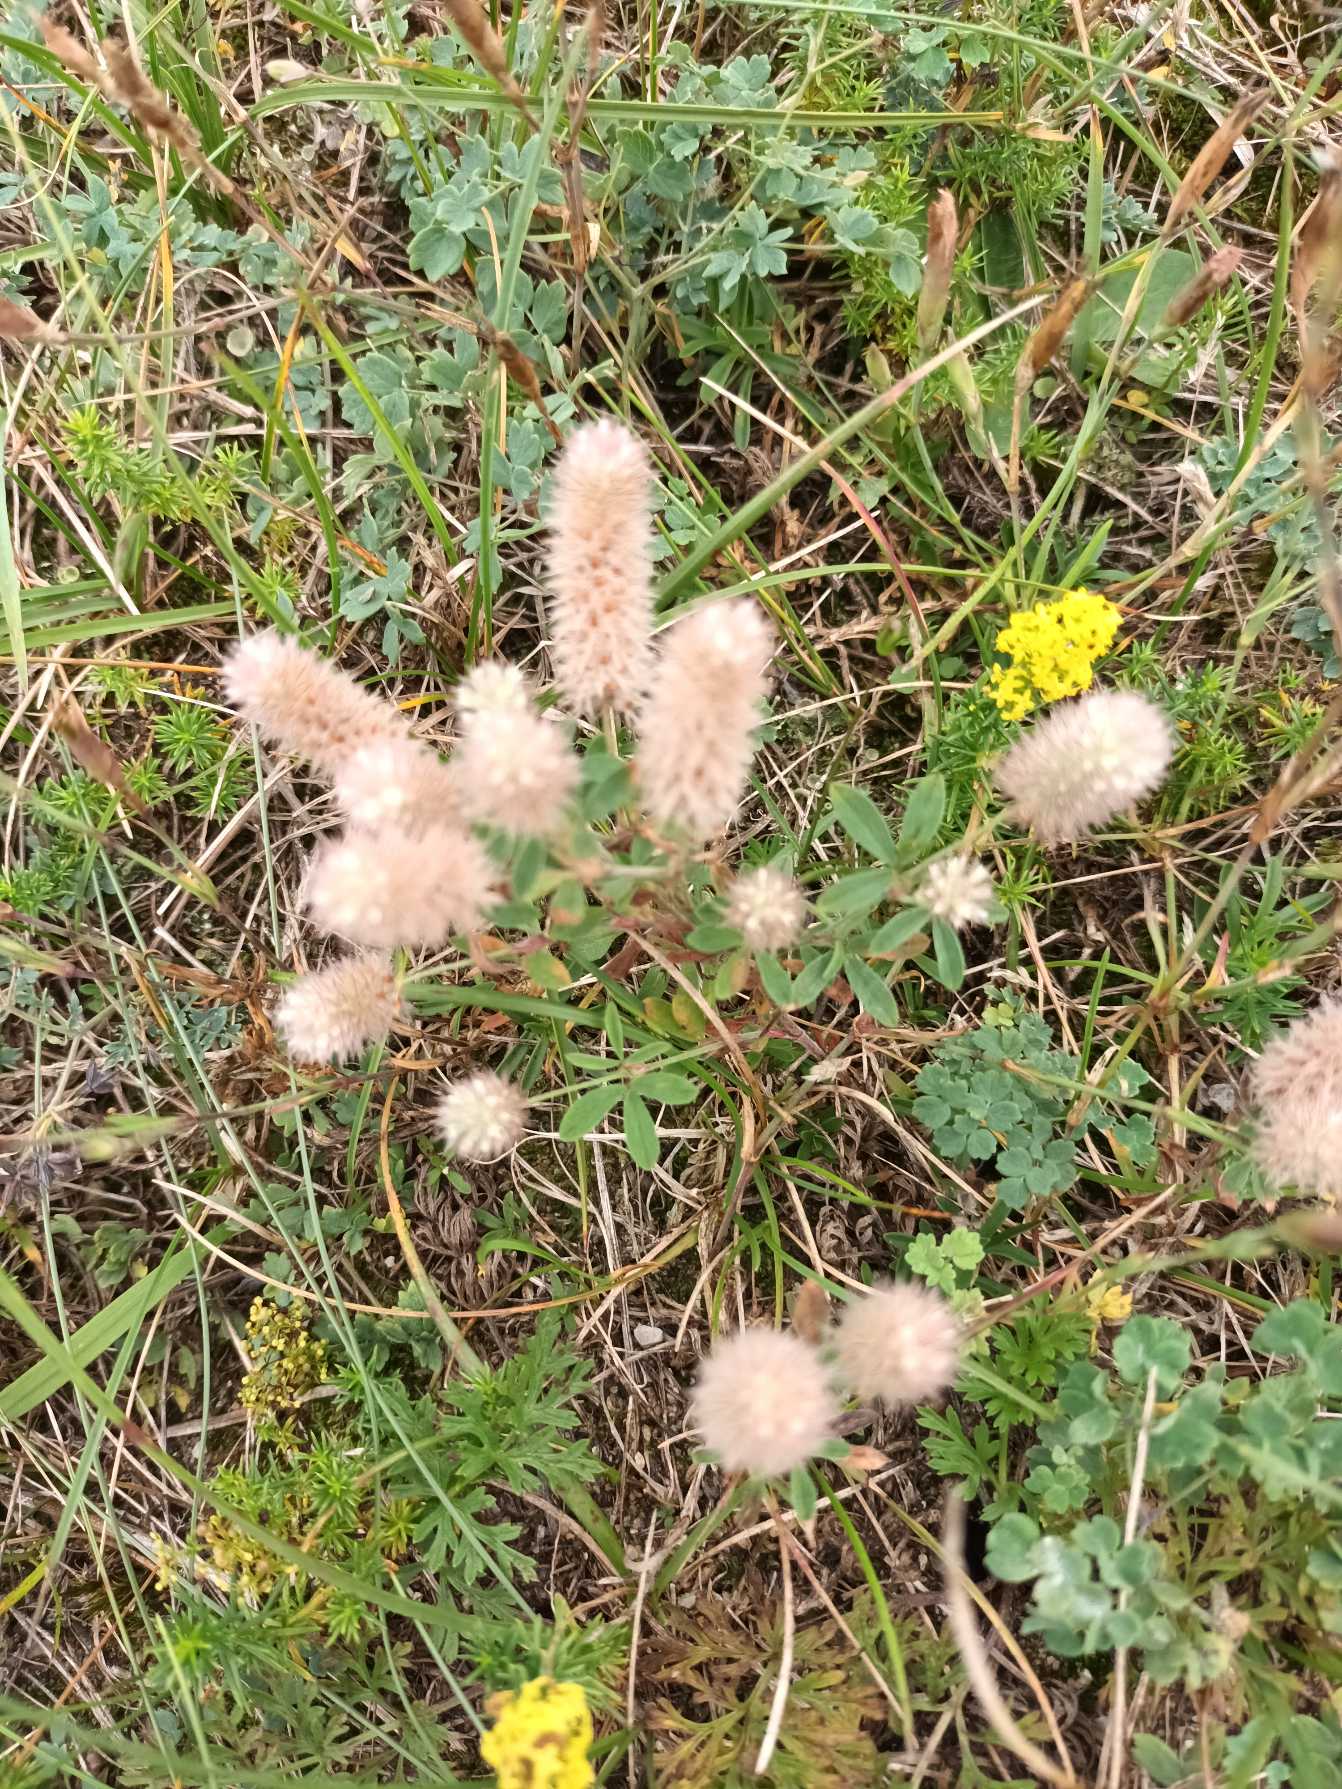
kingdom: Plantae
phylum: Tracheophyta
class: Magnoliopsida
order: Fabales
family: Fabaceae
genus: Trifolium
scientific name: Trifolium arvense
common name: Hare-kløver
